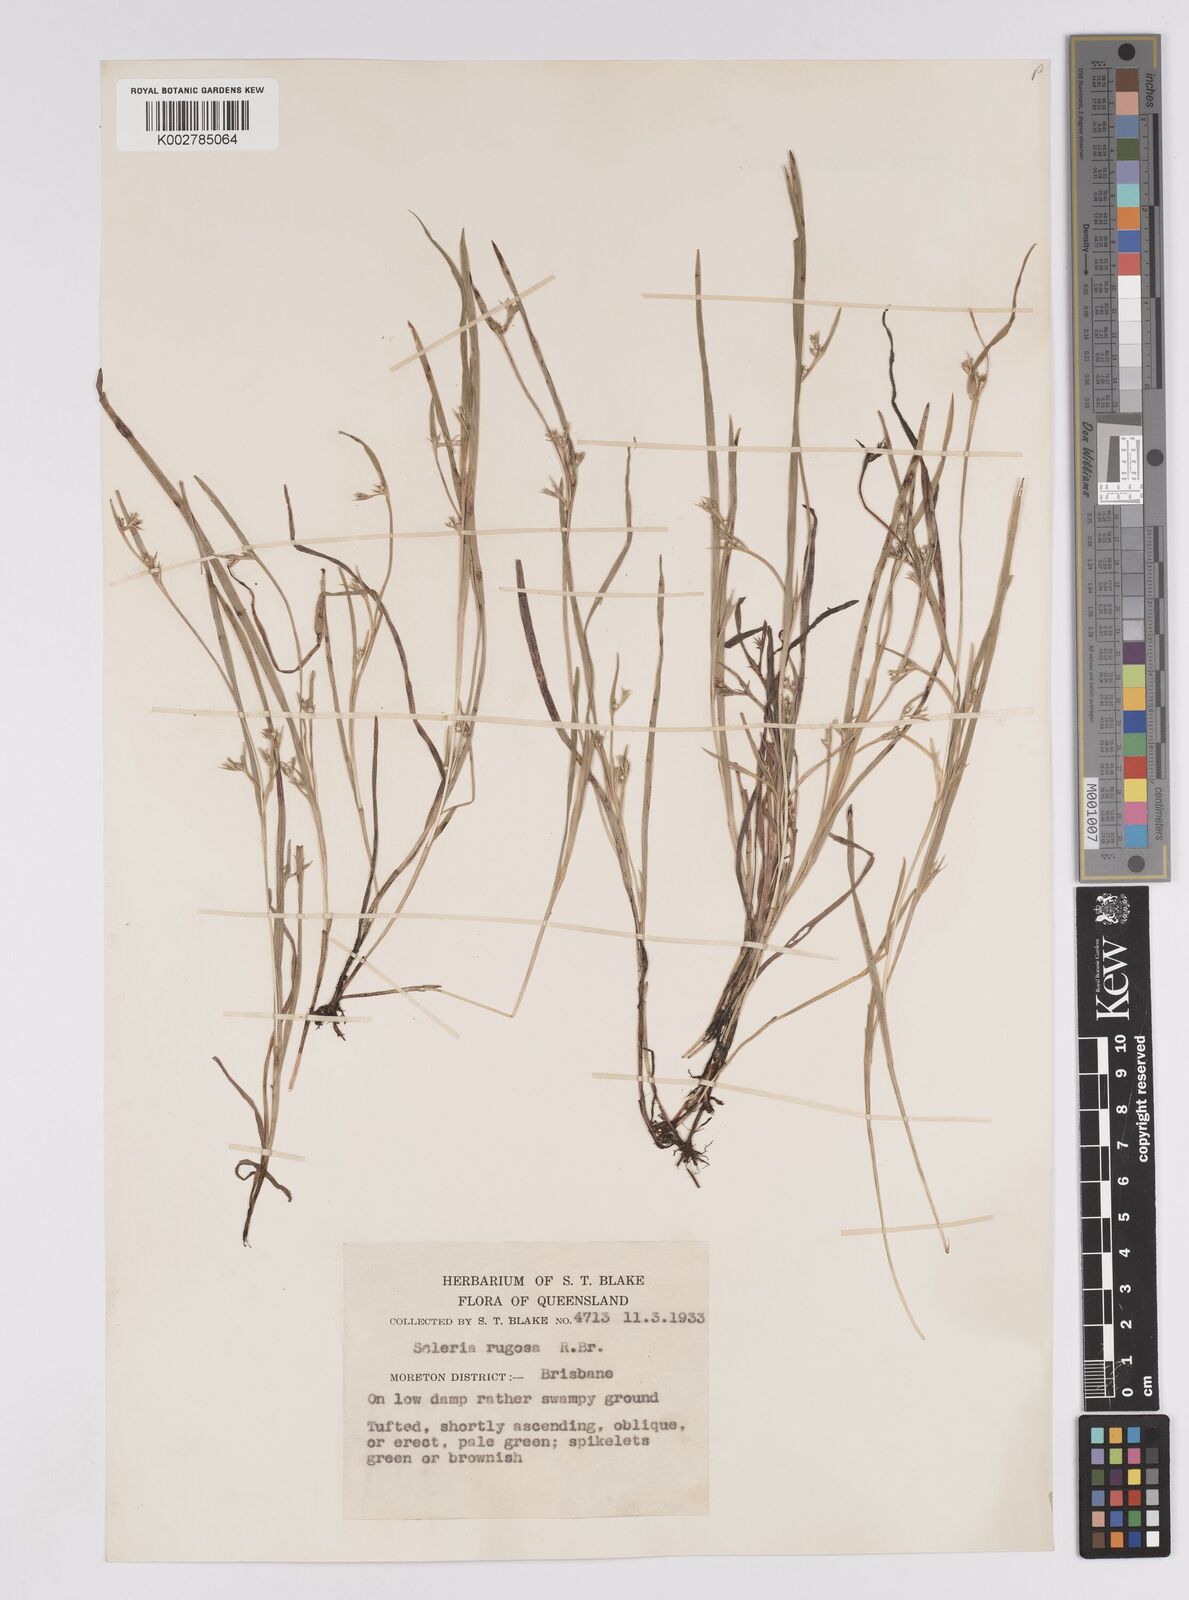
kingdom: Plantae
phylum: Tracheophyta
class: Liliopsida
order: Poales
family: Cyperaceae
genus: Scleria
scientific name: Scleria rugosa
